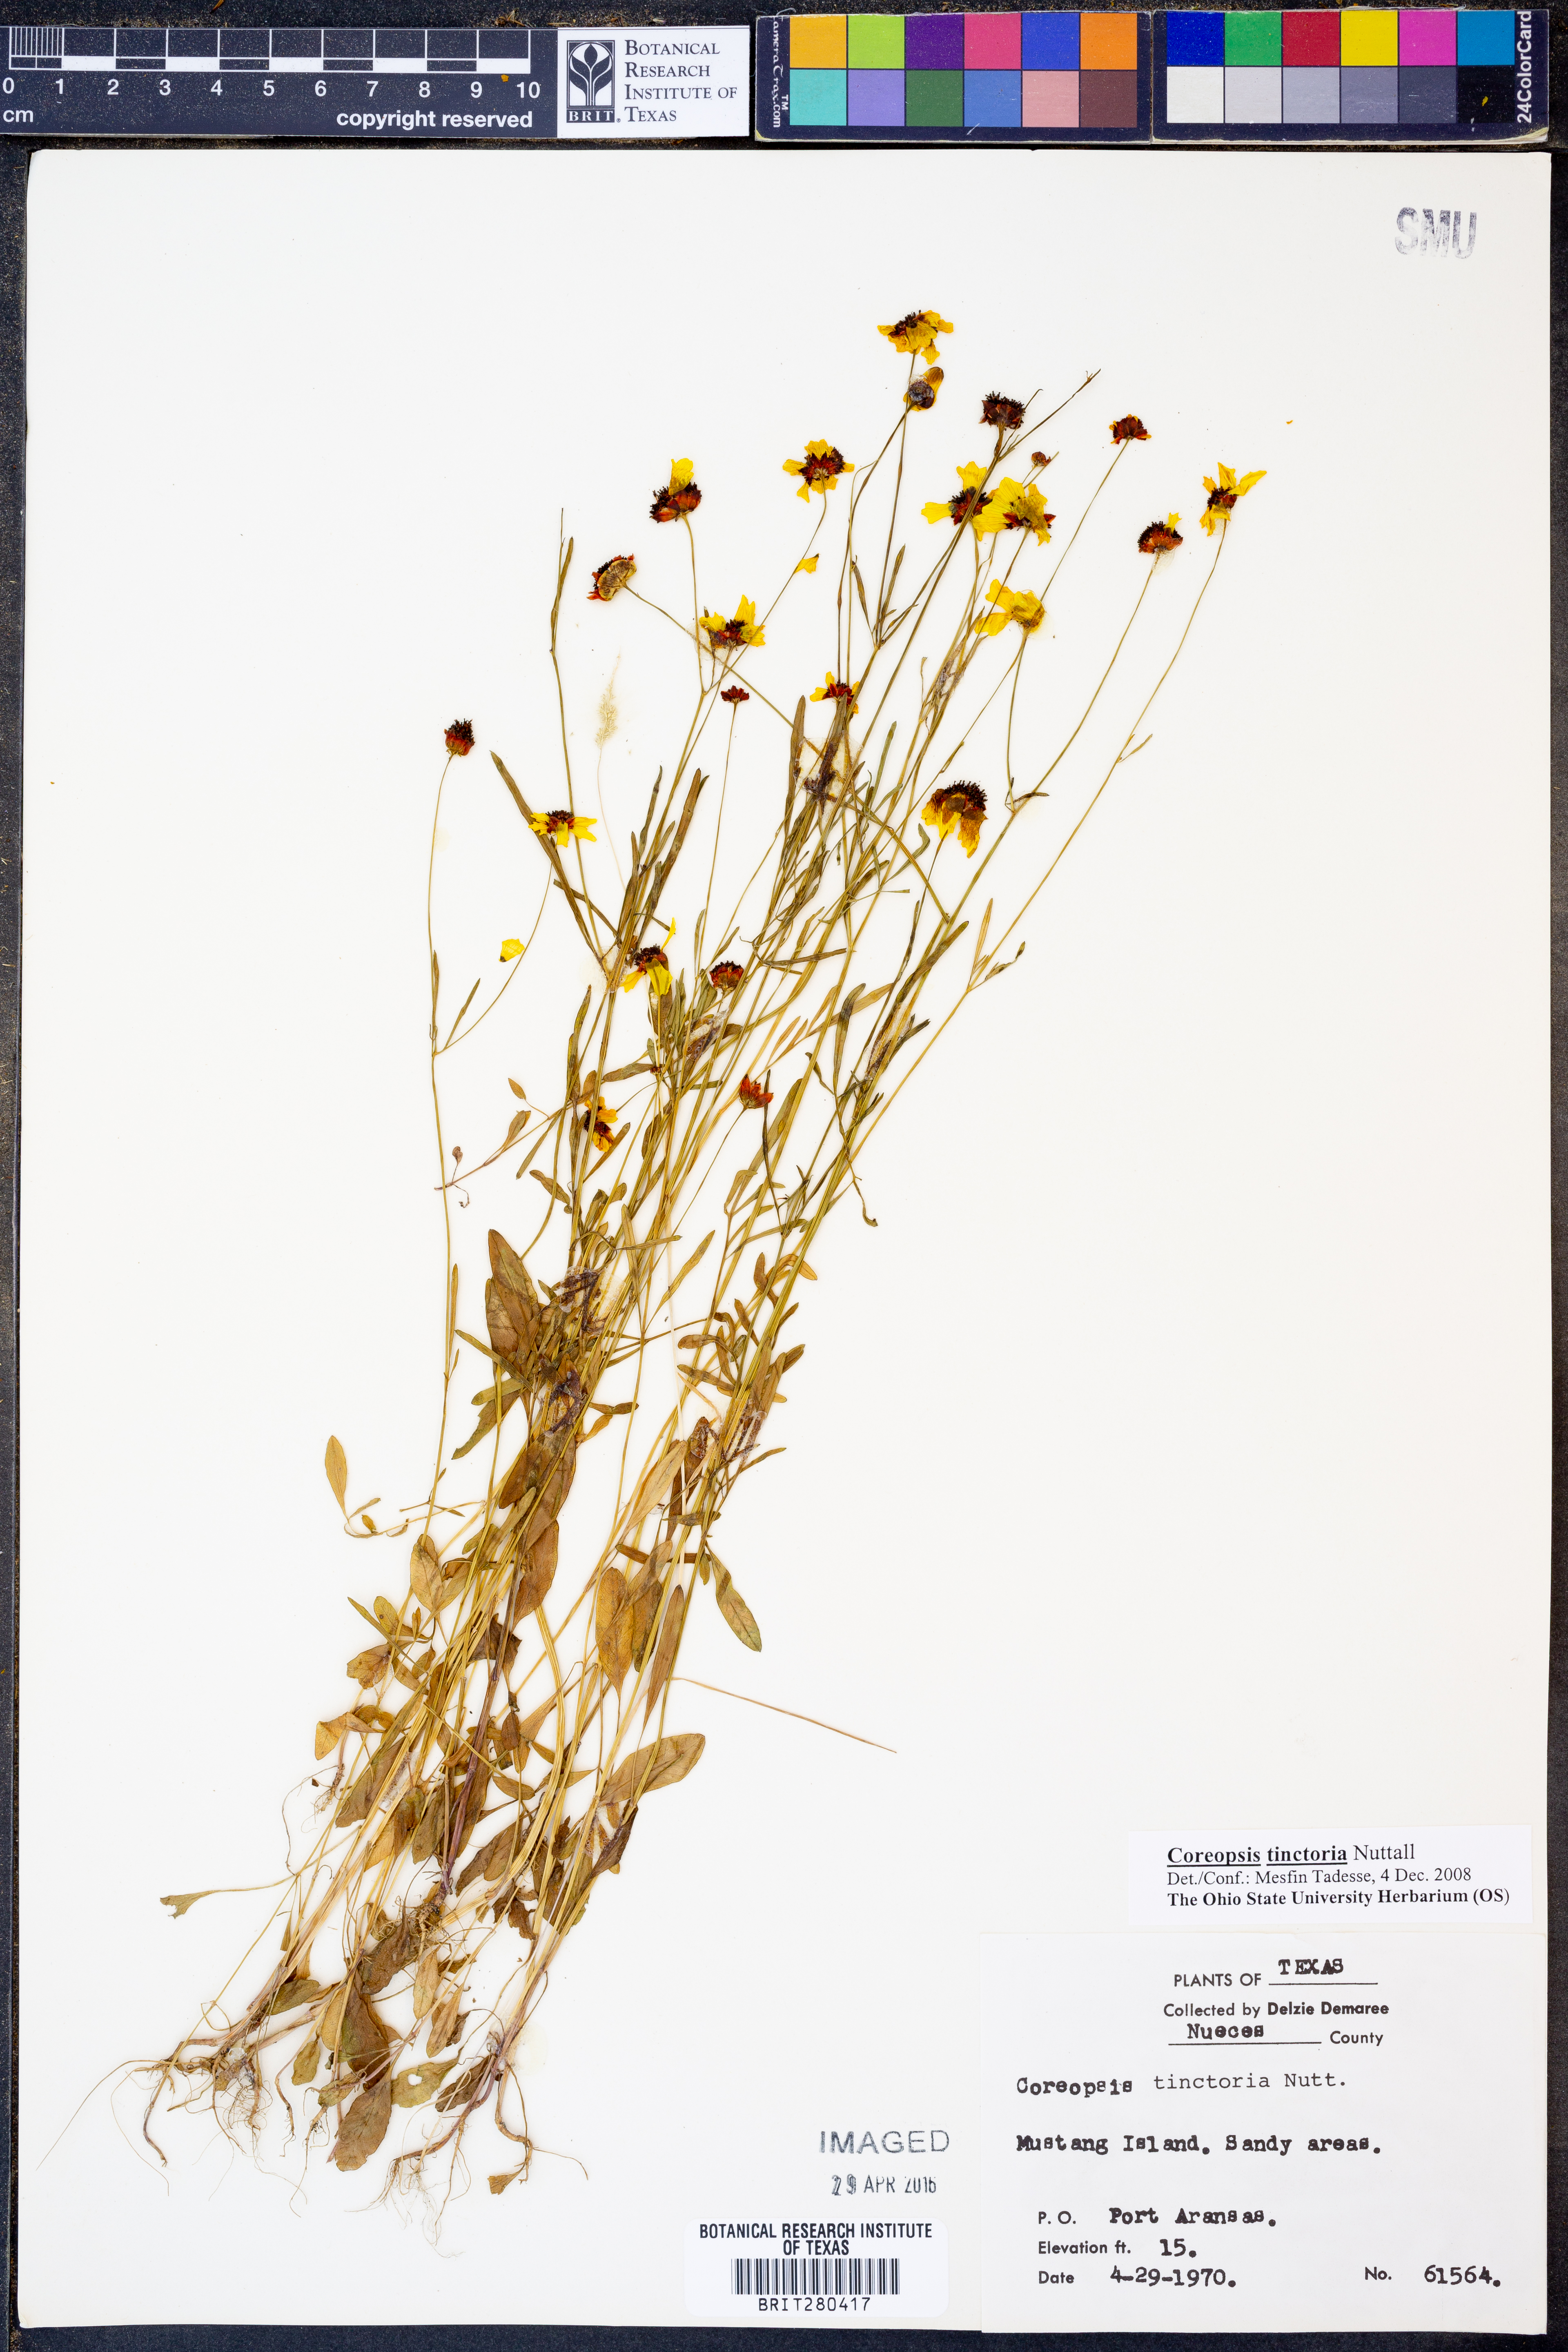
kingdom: Plantae
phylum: Tracheophyta
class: Magnoliopsida
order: Asterales
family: Asteraceae
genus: Coreopsis
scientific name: Coreopsis tinctoria
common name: Garden tickseed
